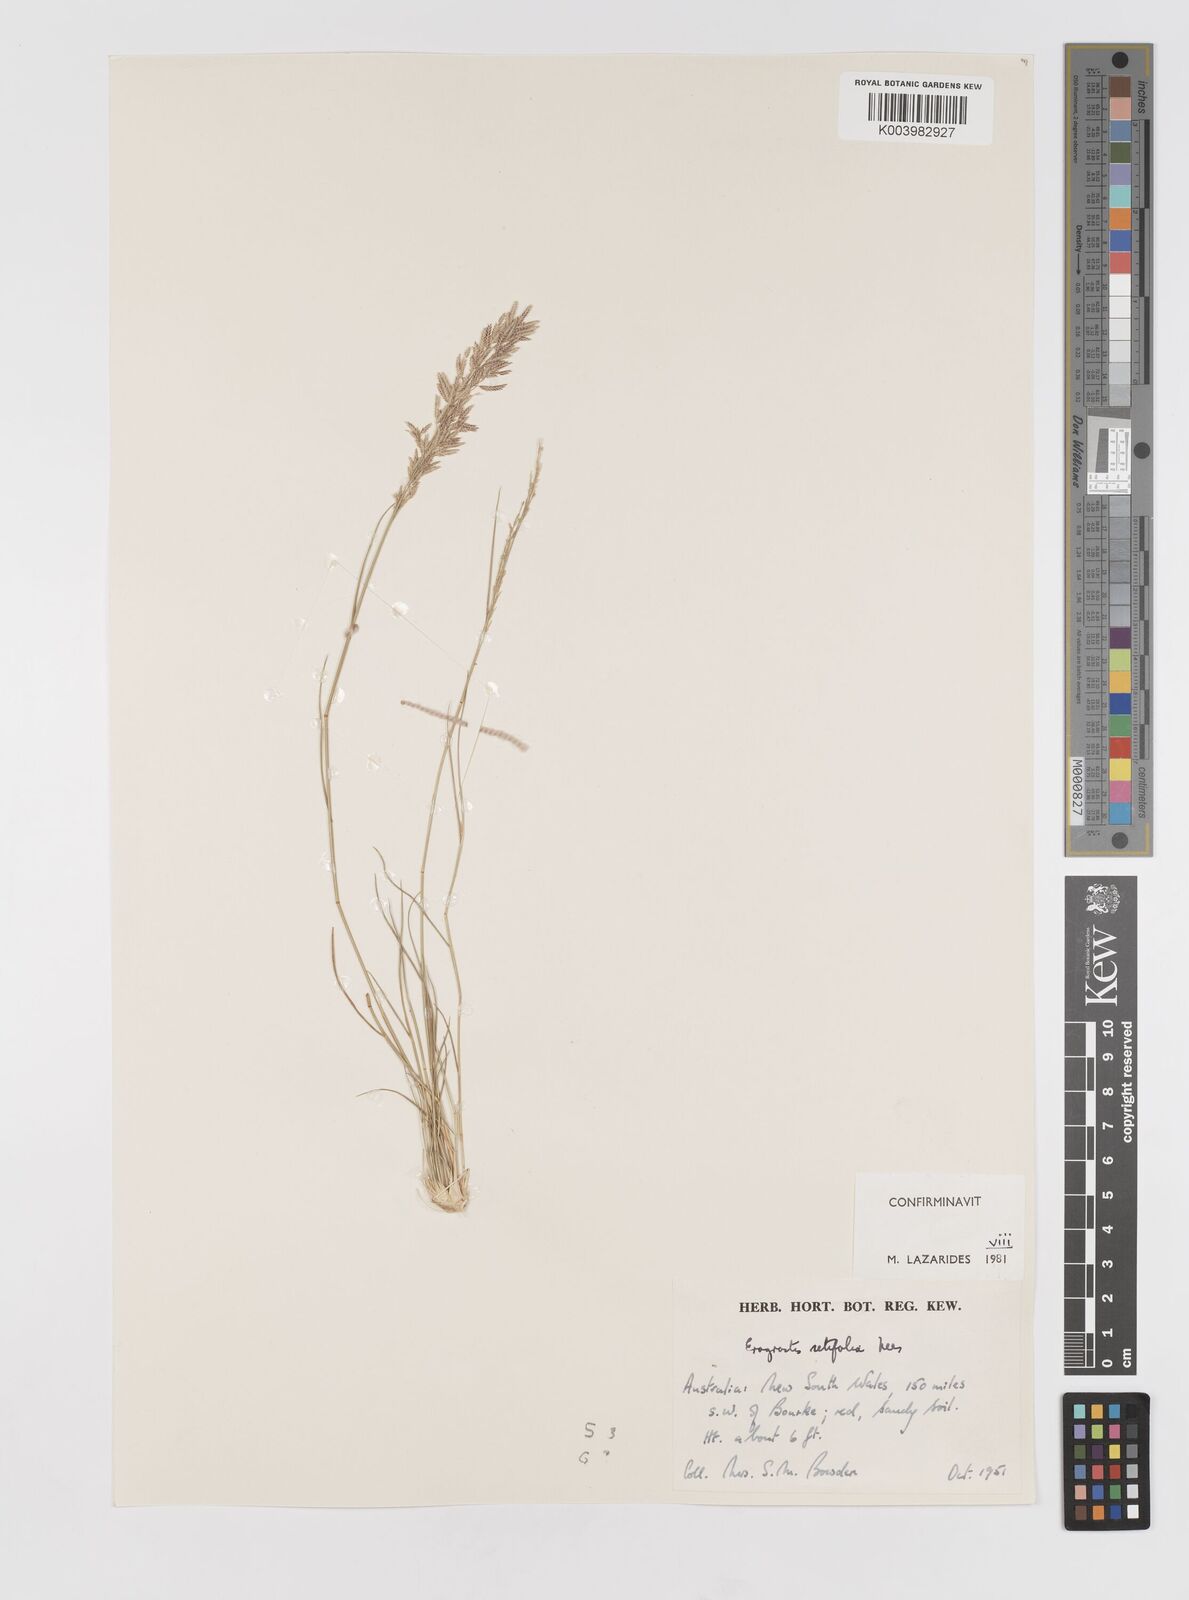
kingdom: Plantae
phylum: Tracheophyta
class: Liliopsida
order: Poales
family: Poaceae
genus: Eragrostis
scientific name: Eragrostis setifolia
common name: Bristleleaf lovegrass
